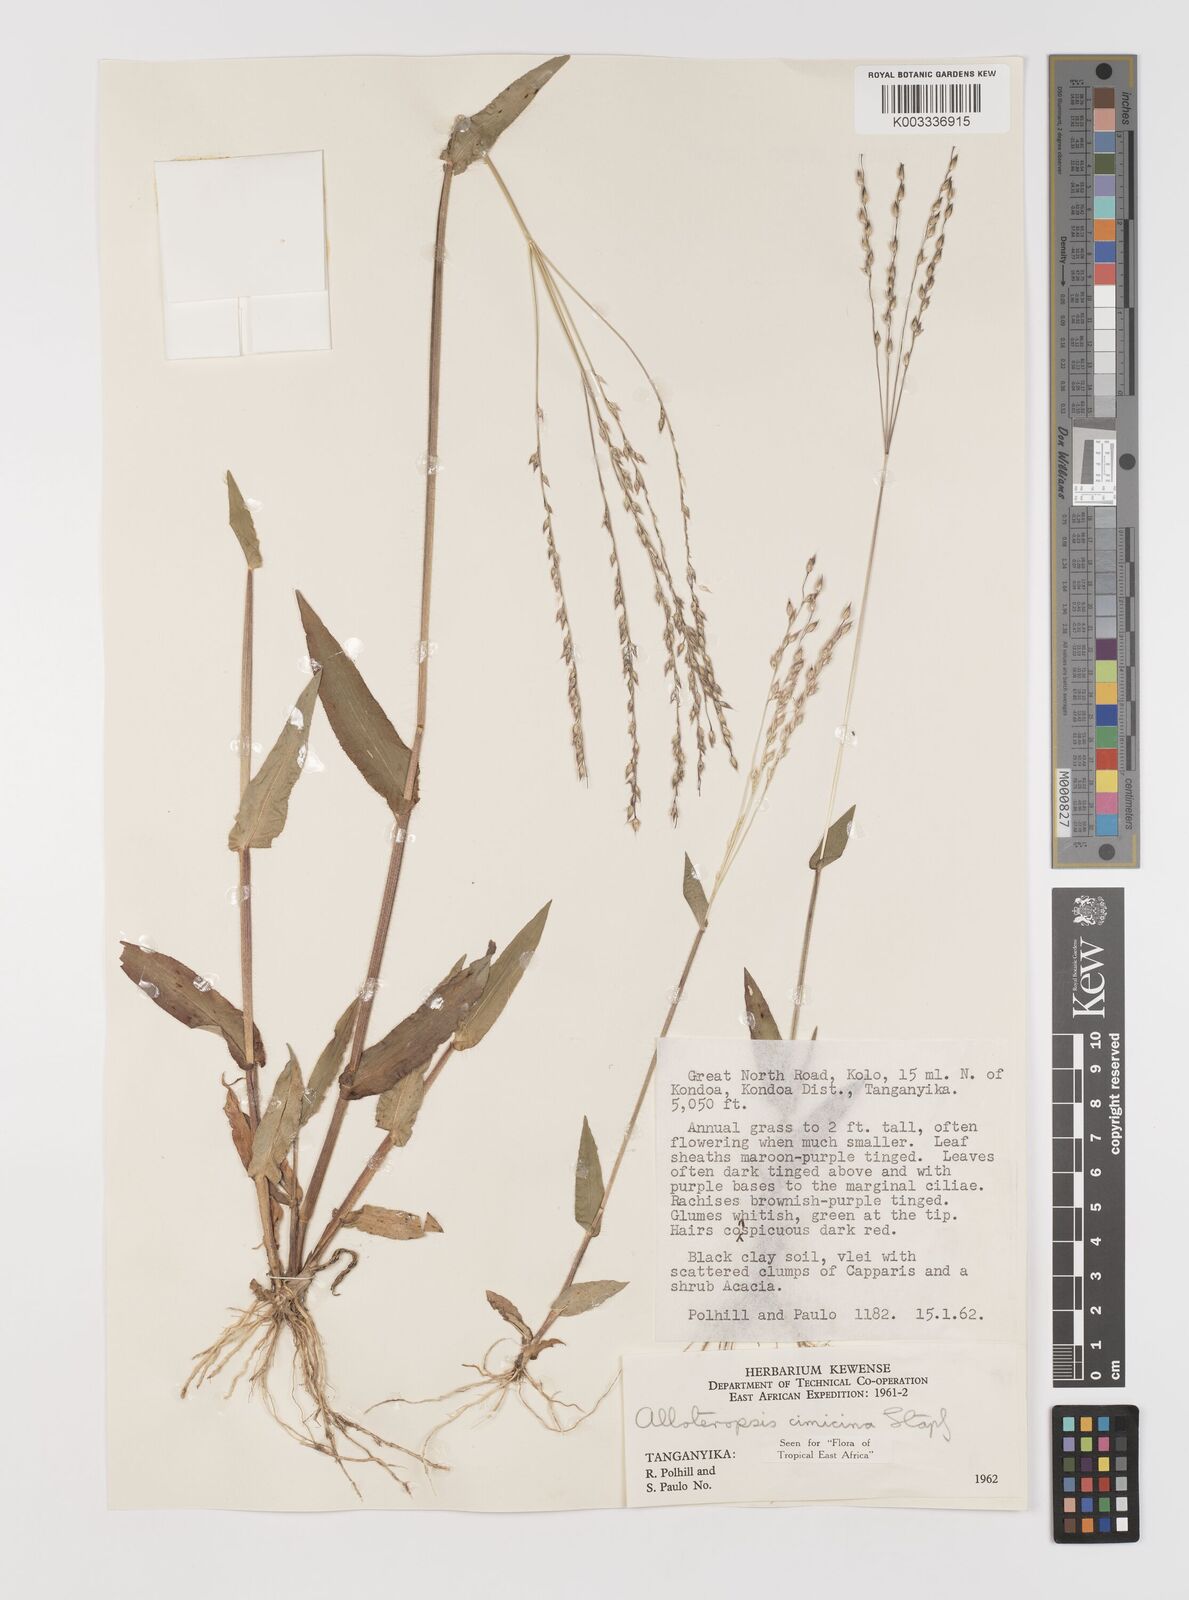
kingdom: Plantae
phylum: Tracheophyta
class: Liliopsida
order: Poales
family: Poaceae
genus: Alloteropsis
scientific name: Alloteropsis cimicina
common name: Summergrass
